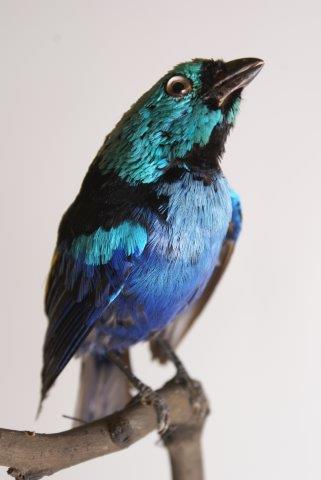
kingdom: Animalia
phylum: Chordata
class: Aves
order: Passeriformes
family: Thraupidae
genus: Tangara
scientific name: Tangara fastuosa
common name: Seven-colored tanager
